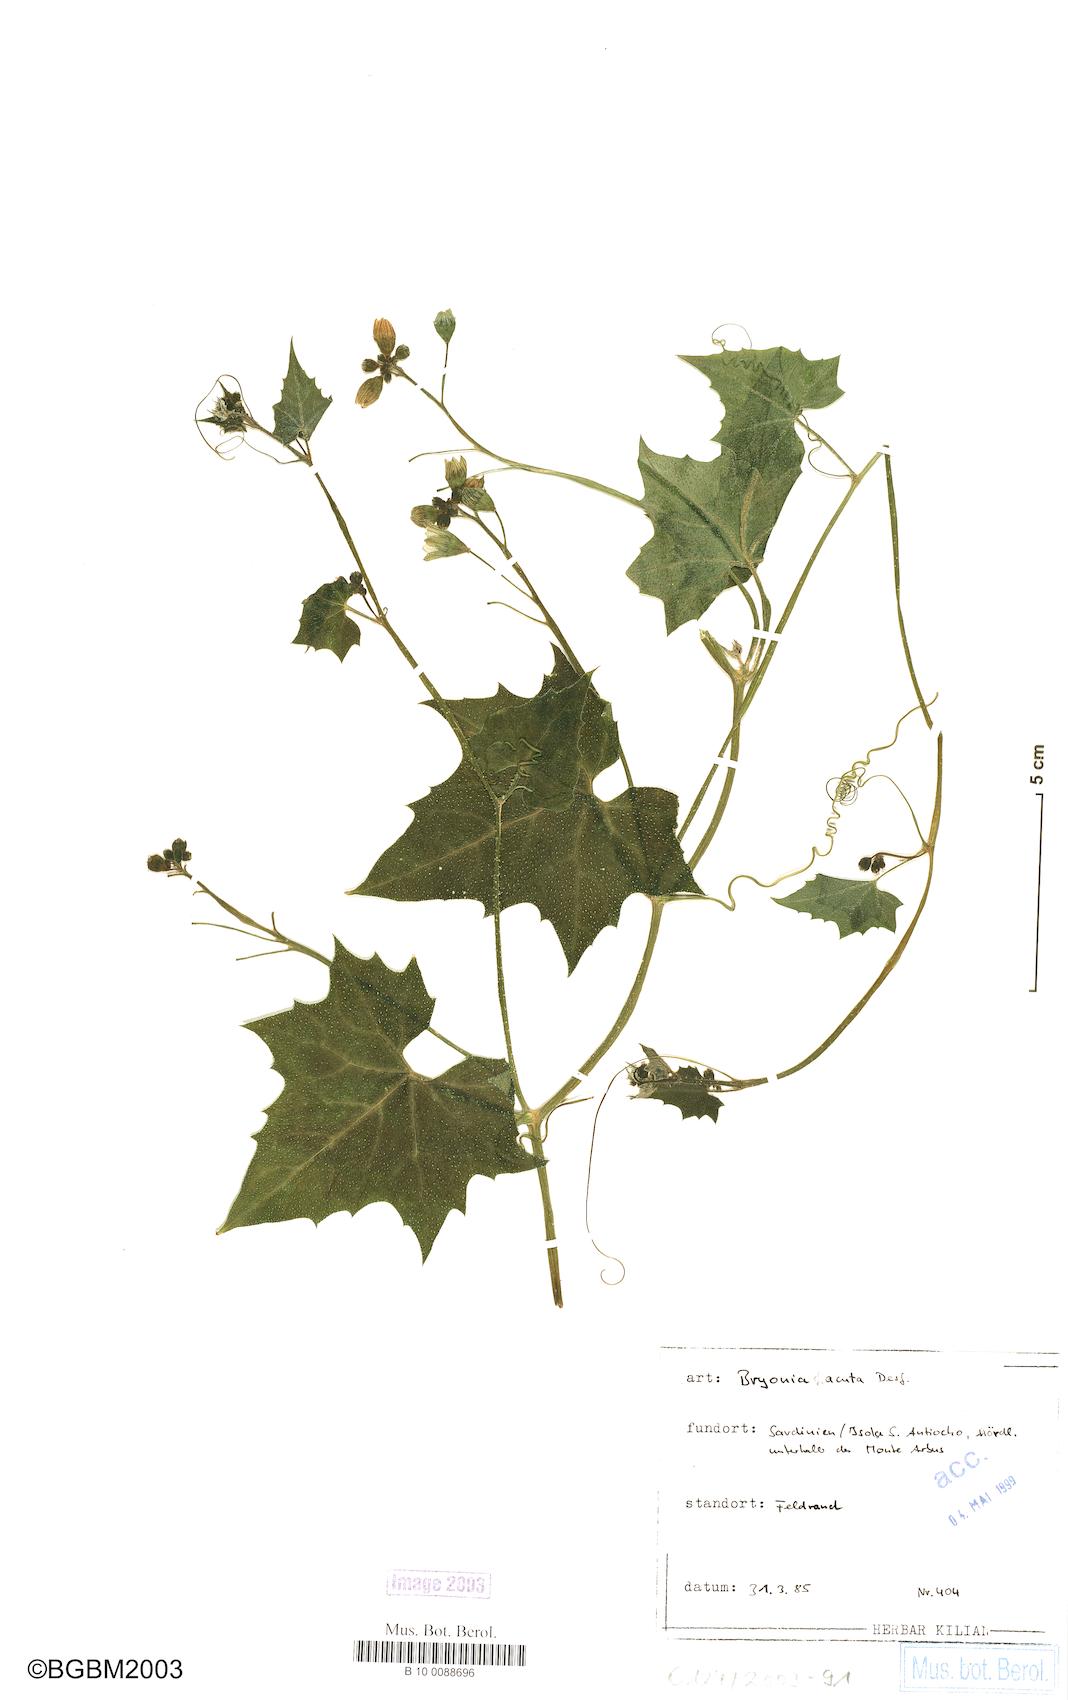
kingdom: Plantae
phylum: Tracheophyta
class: Magnoliopsida
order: Cucurbitales
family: Cucurbitaceae
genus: Bryonia
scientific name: Bryonia acuta
